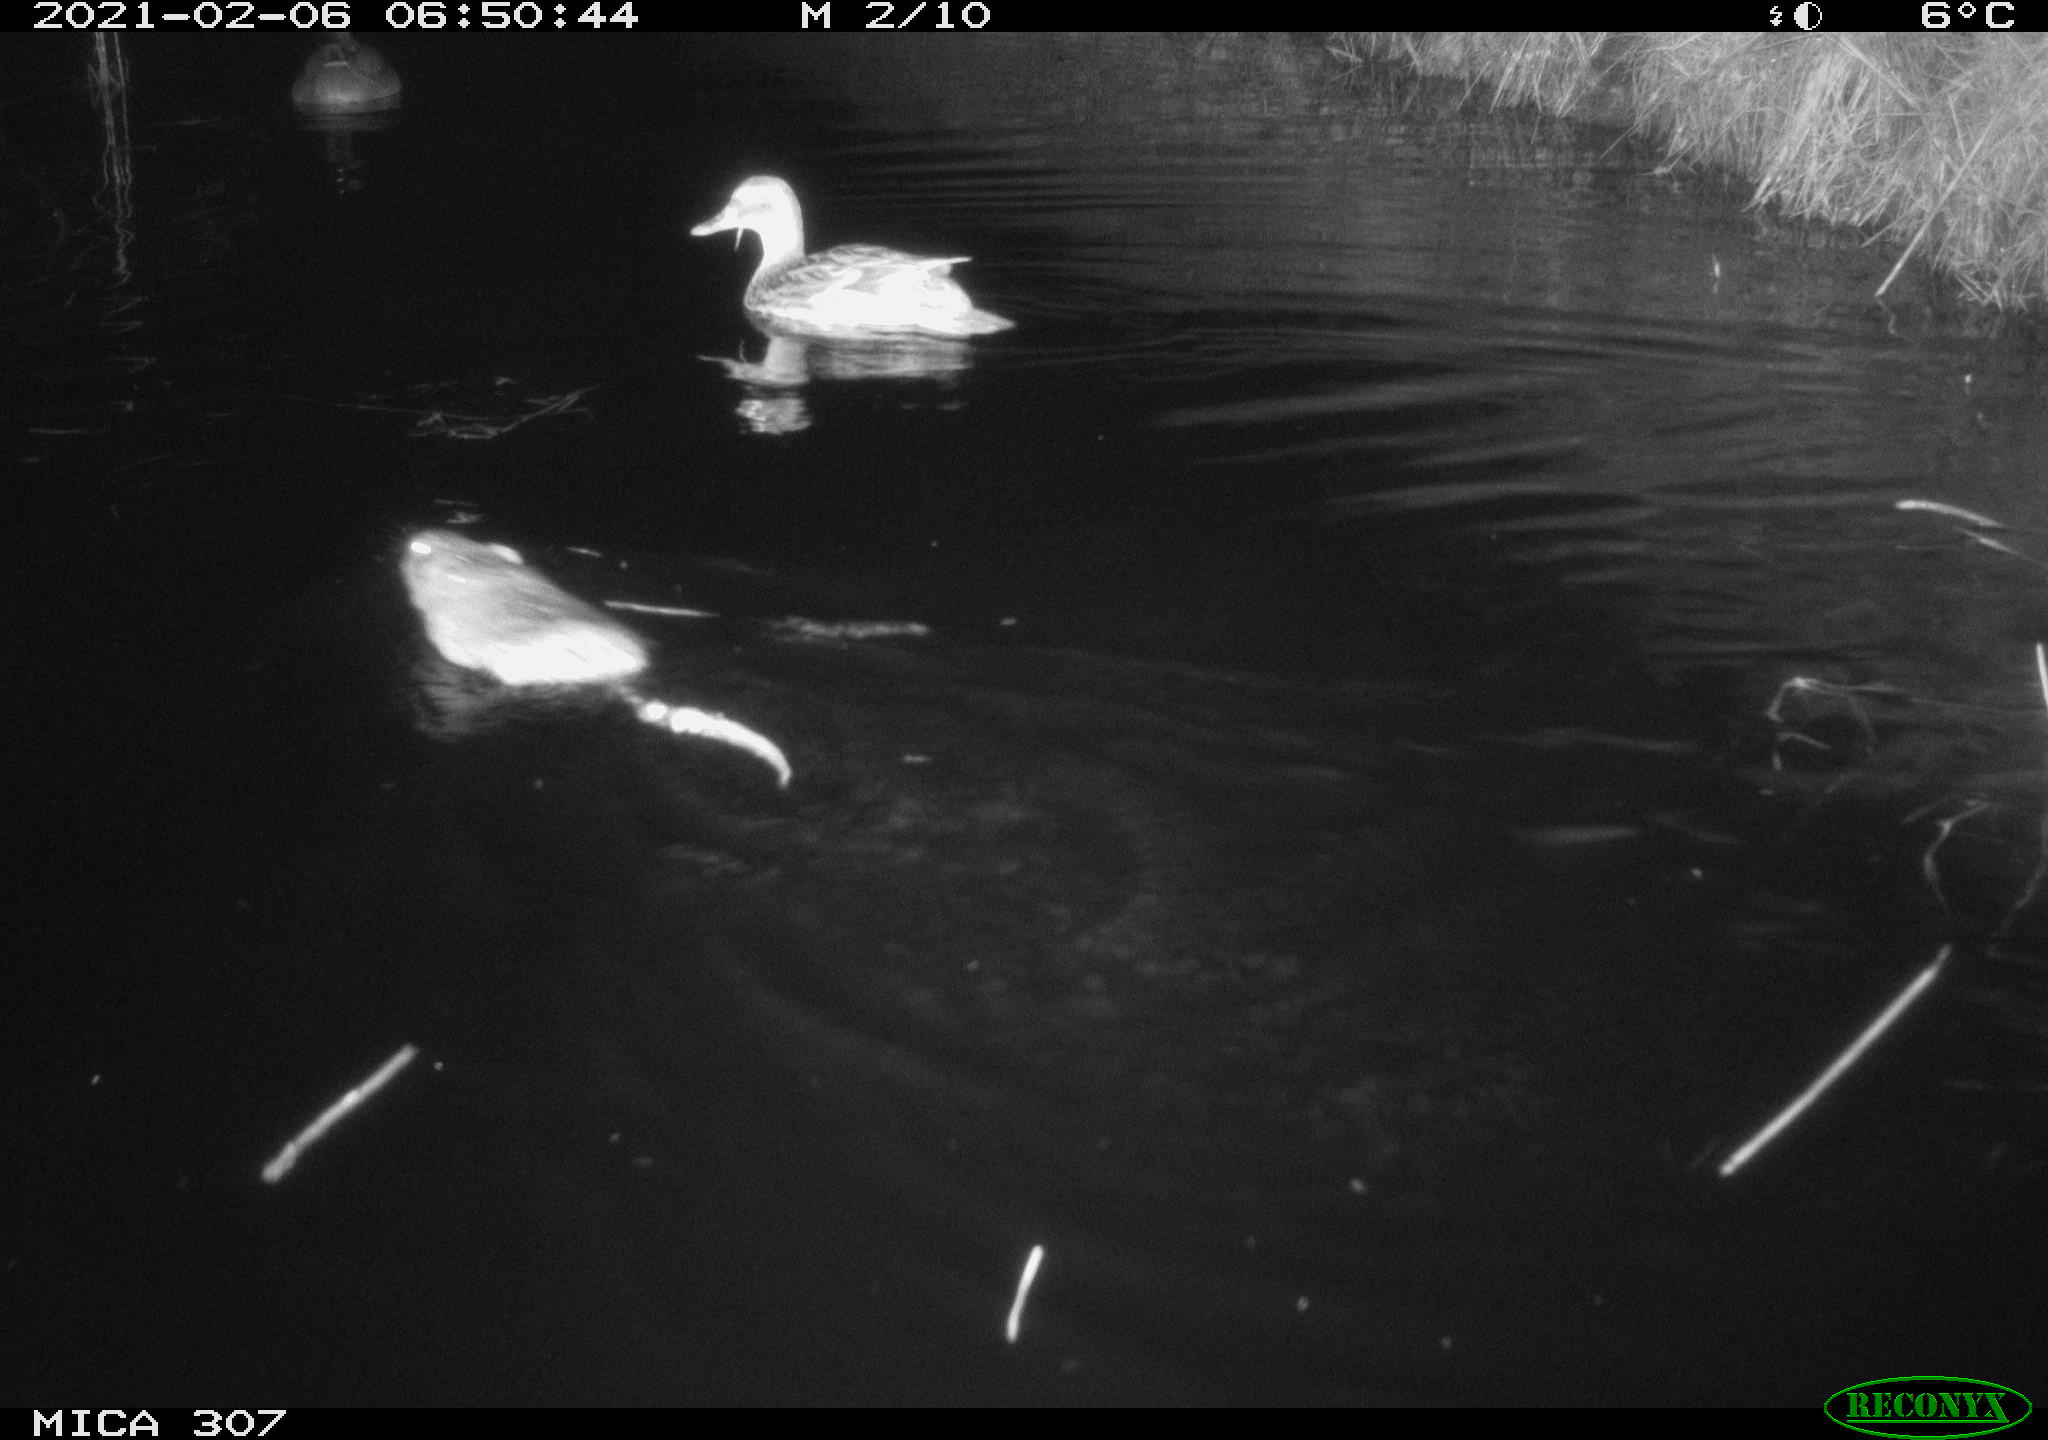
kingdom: Animalia
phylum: Chordata
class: Aves
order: Anseriformes
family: Anatidae
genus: Anas
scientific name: Anas platyrhynchos
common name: Mallard
